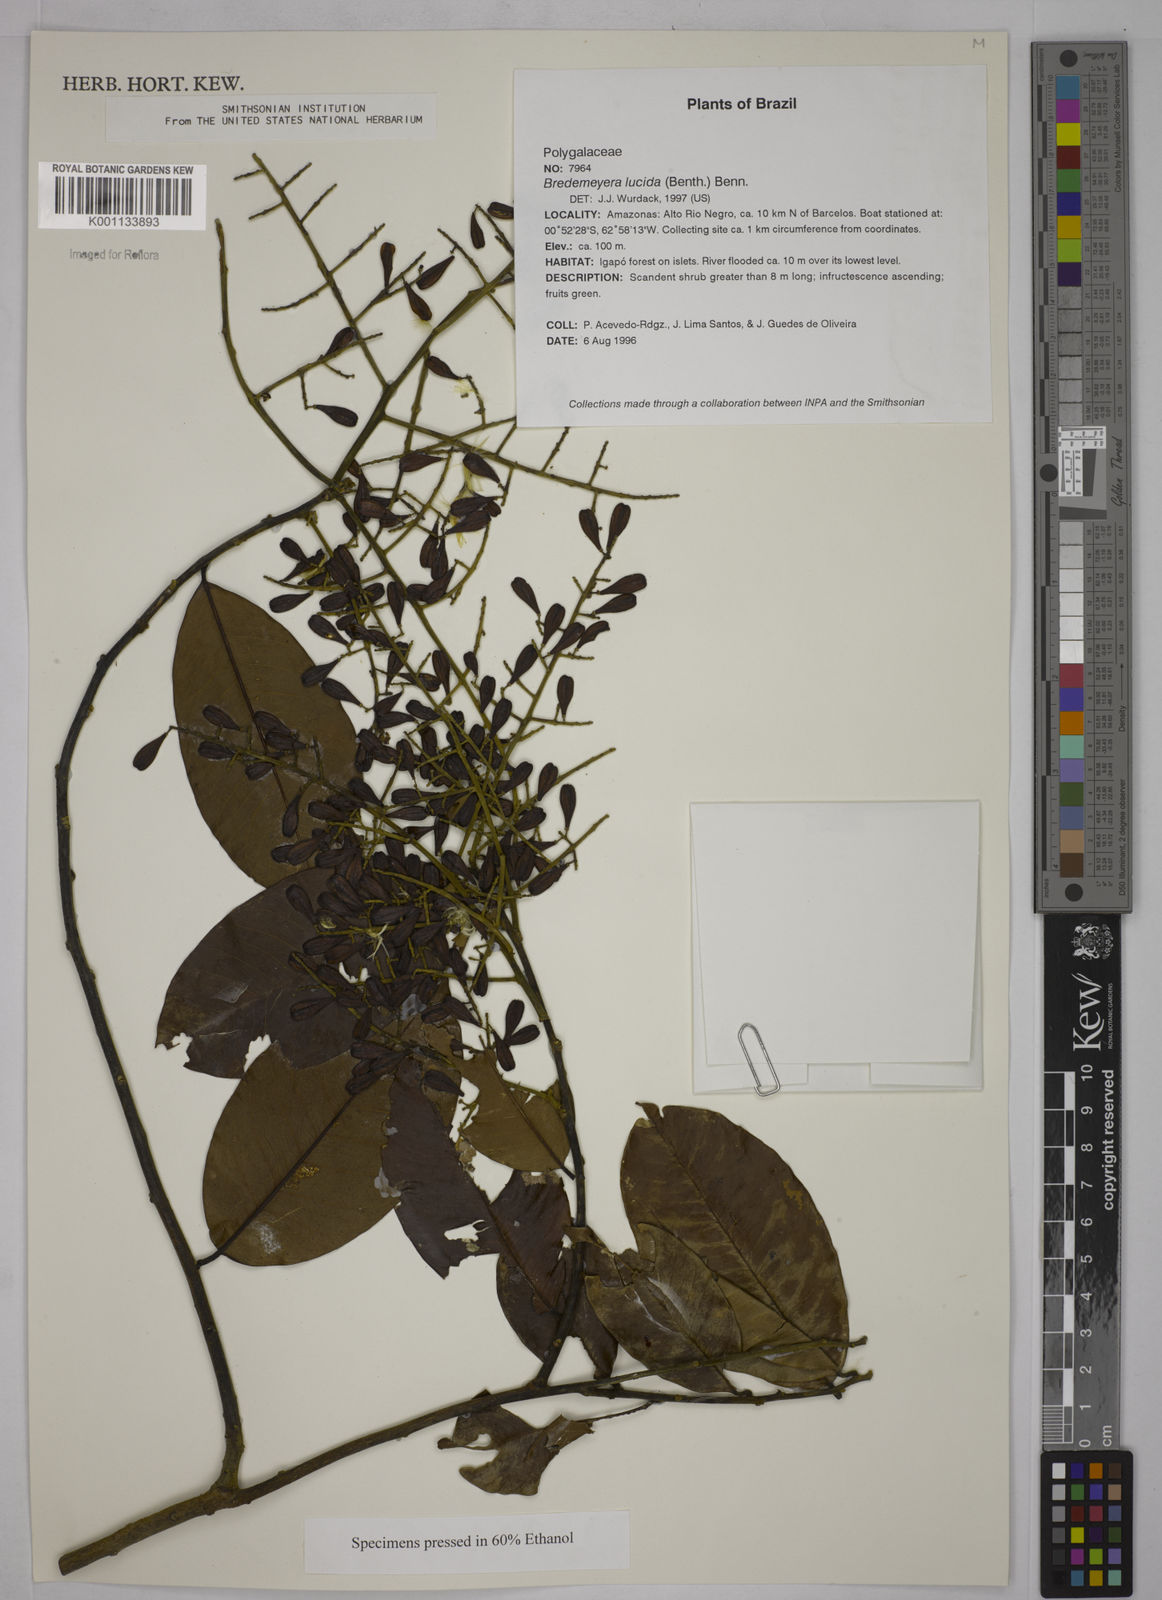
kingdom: Plantae
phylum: Tracheophyta
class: Magnoliopsida
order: Fabales
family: Polygalaceae
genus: Bredemeyera
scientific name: Bredemeyera lucida
